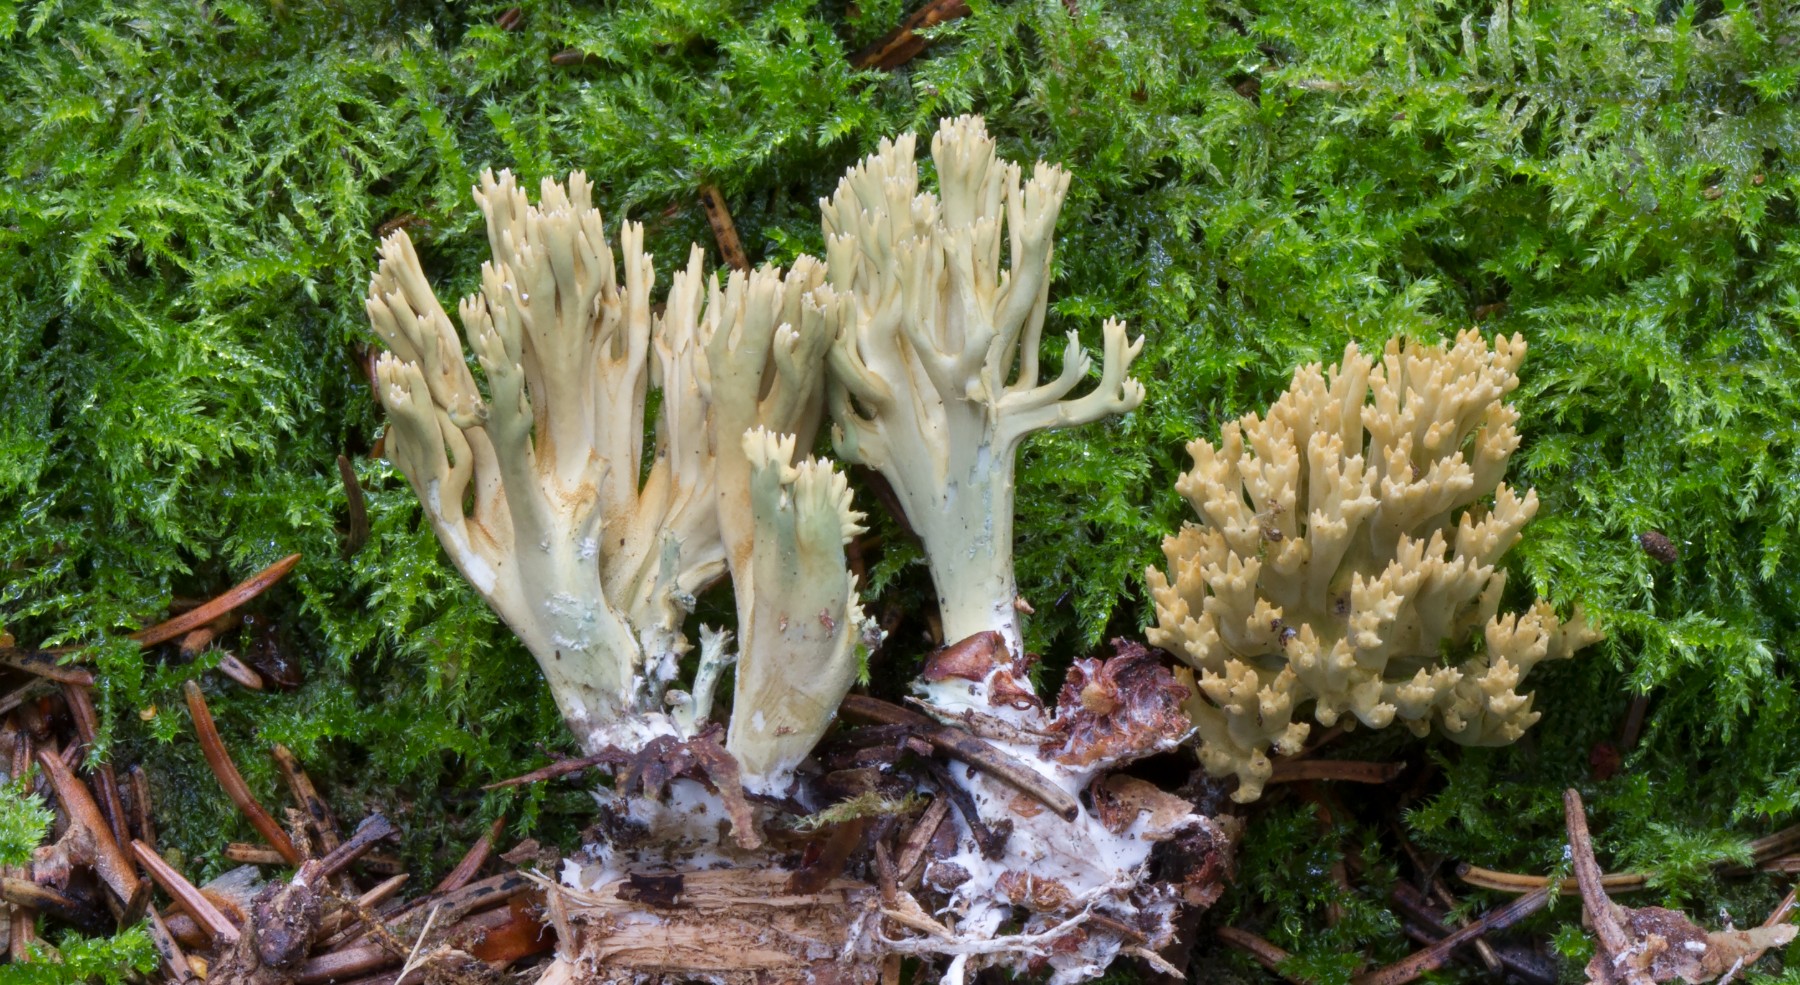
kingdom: Fungi
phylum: Basidiomycota
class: Agaricomycetes
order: Gomphales
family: Gomphaceae
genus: Phaeoclavulina
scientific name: Phaeoclavulina abietina
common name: gulgrøn koralsvamp
